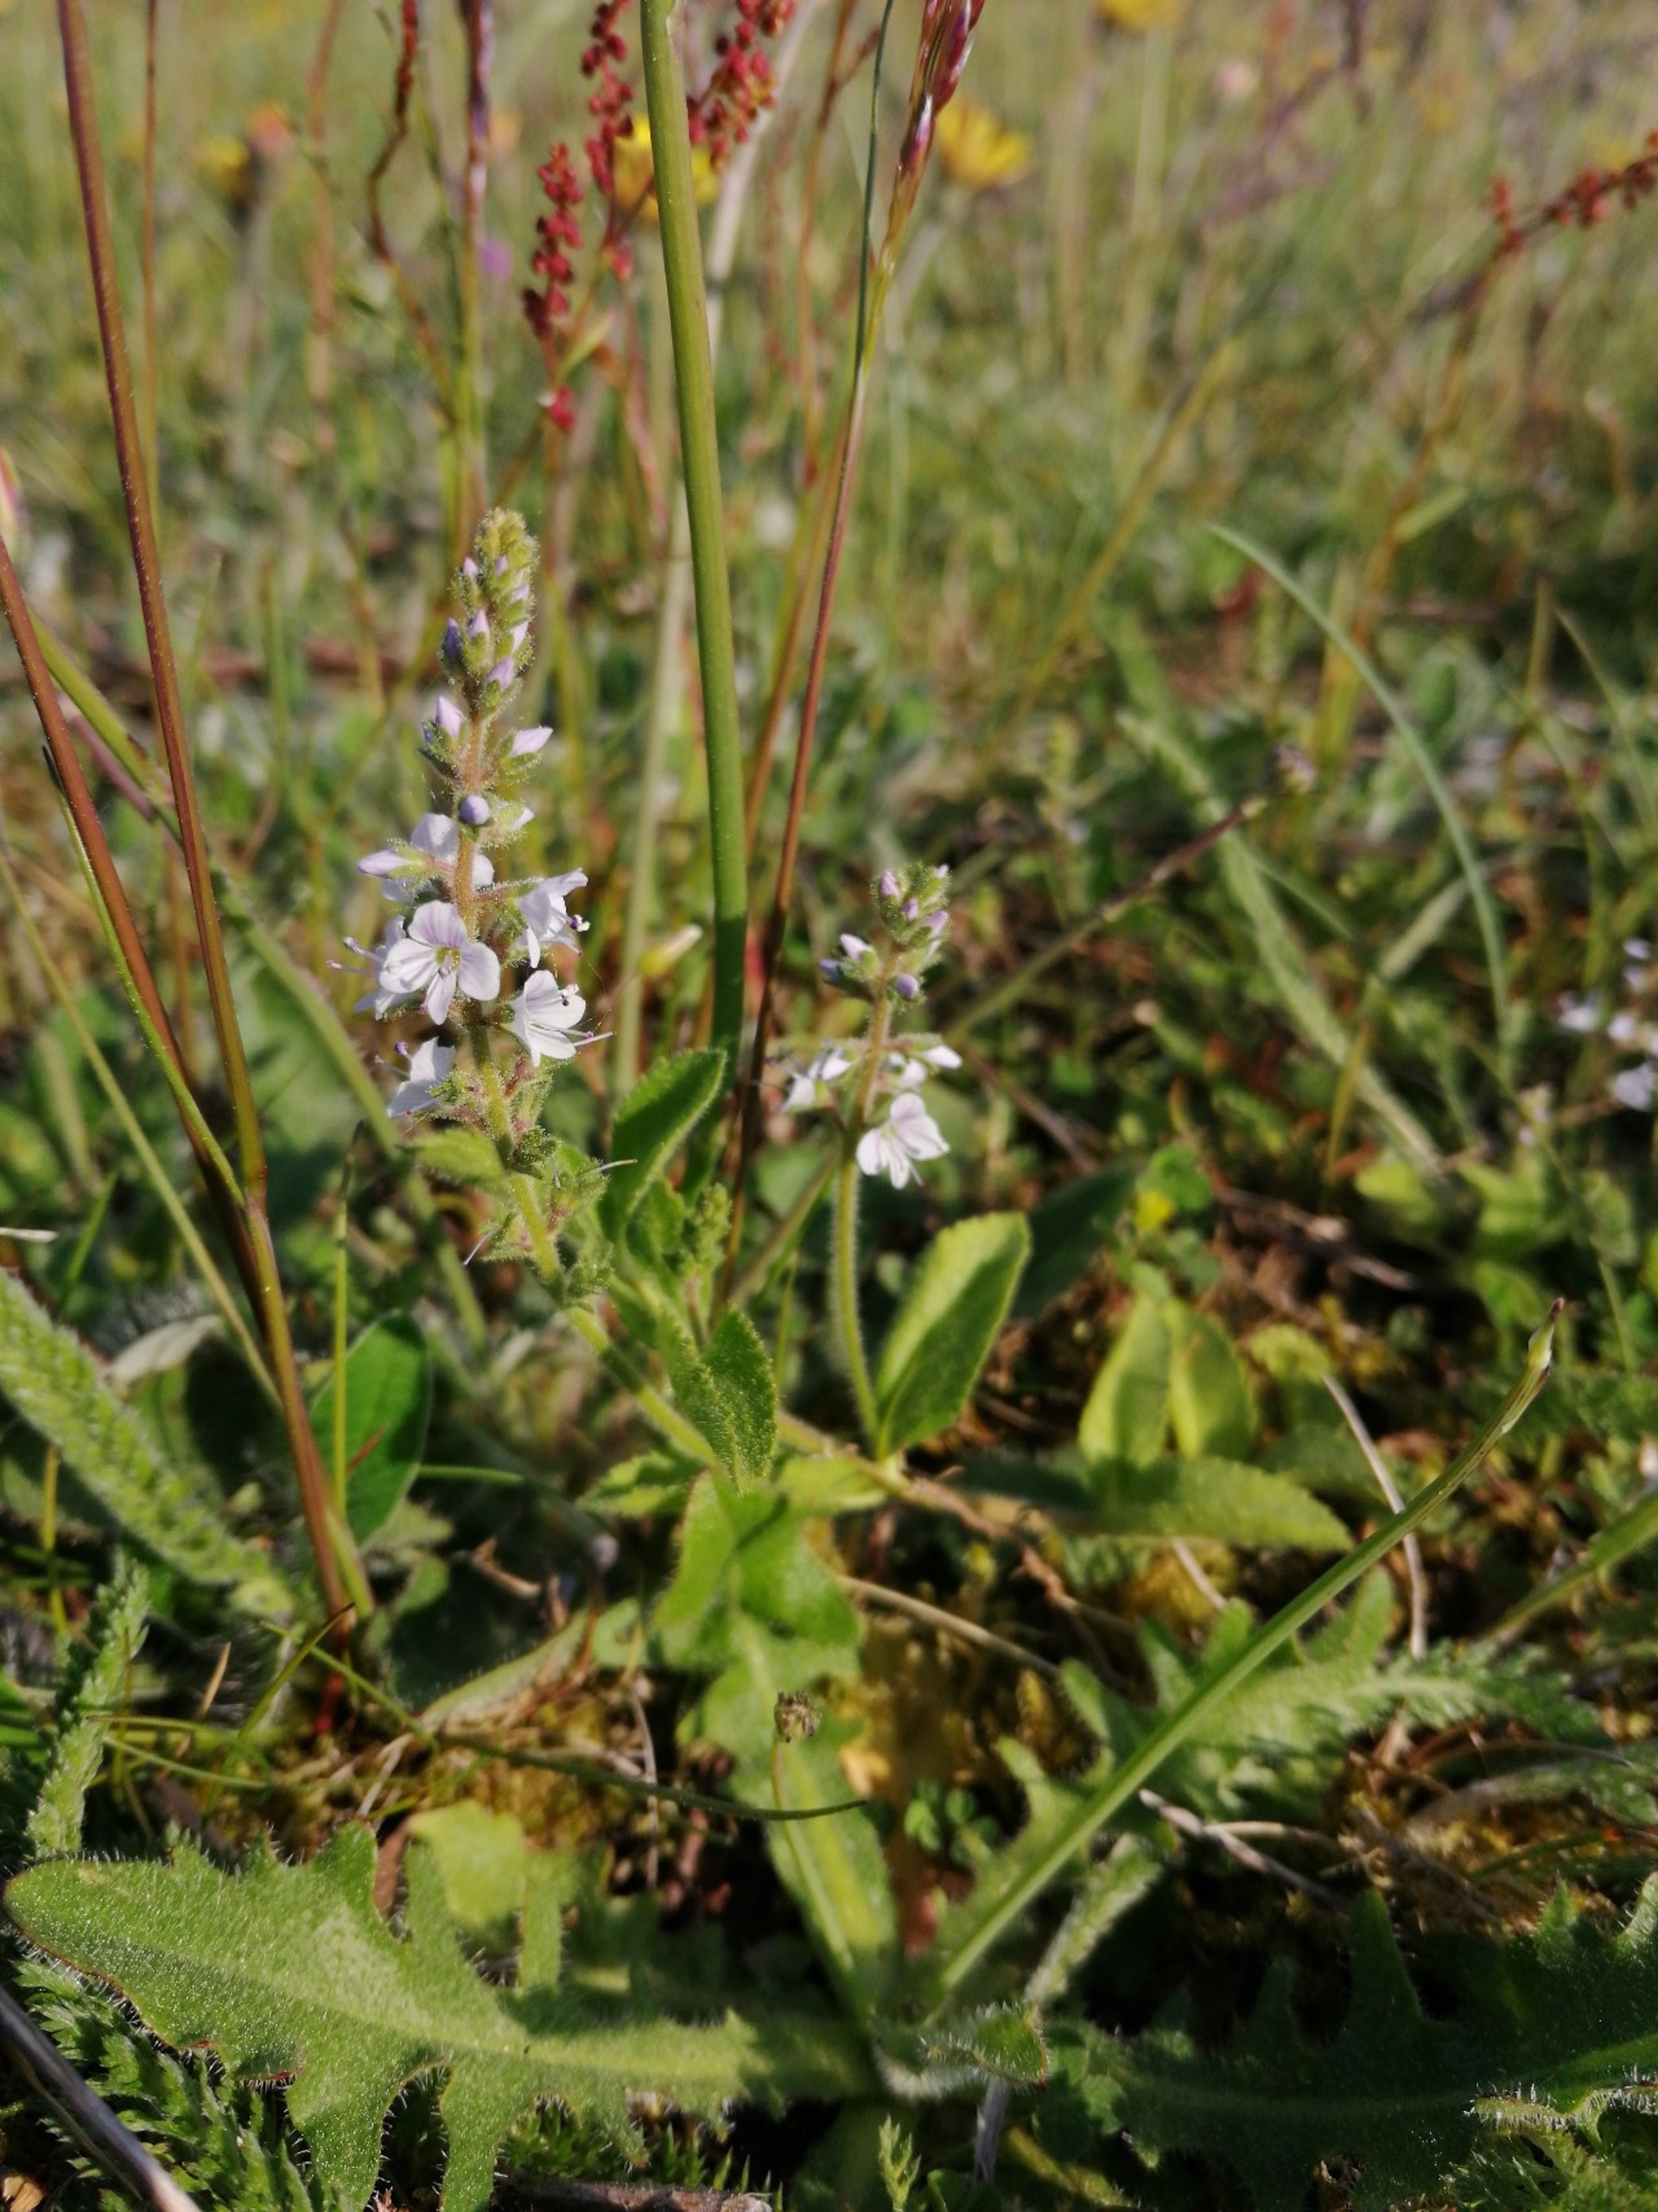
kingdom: Plantae
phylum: Tracheophyta
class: Magnoliopsida
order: Lamiales
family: Plantaginaceae
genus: Veronica
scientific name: Veronica officinalis
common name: Læge-ærenpris
